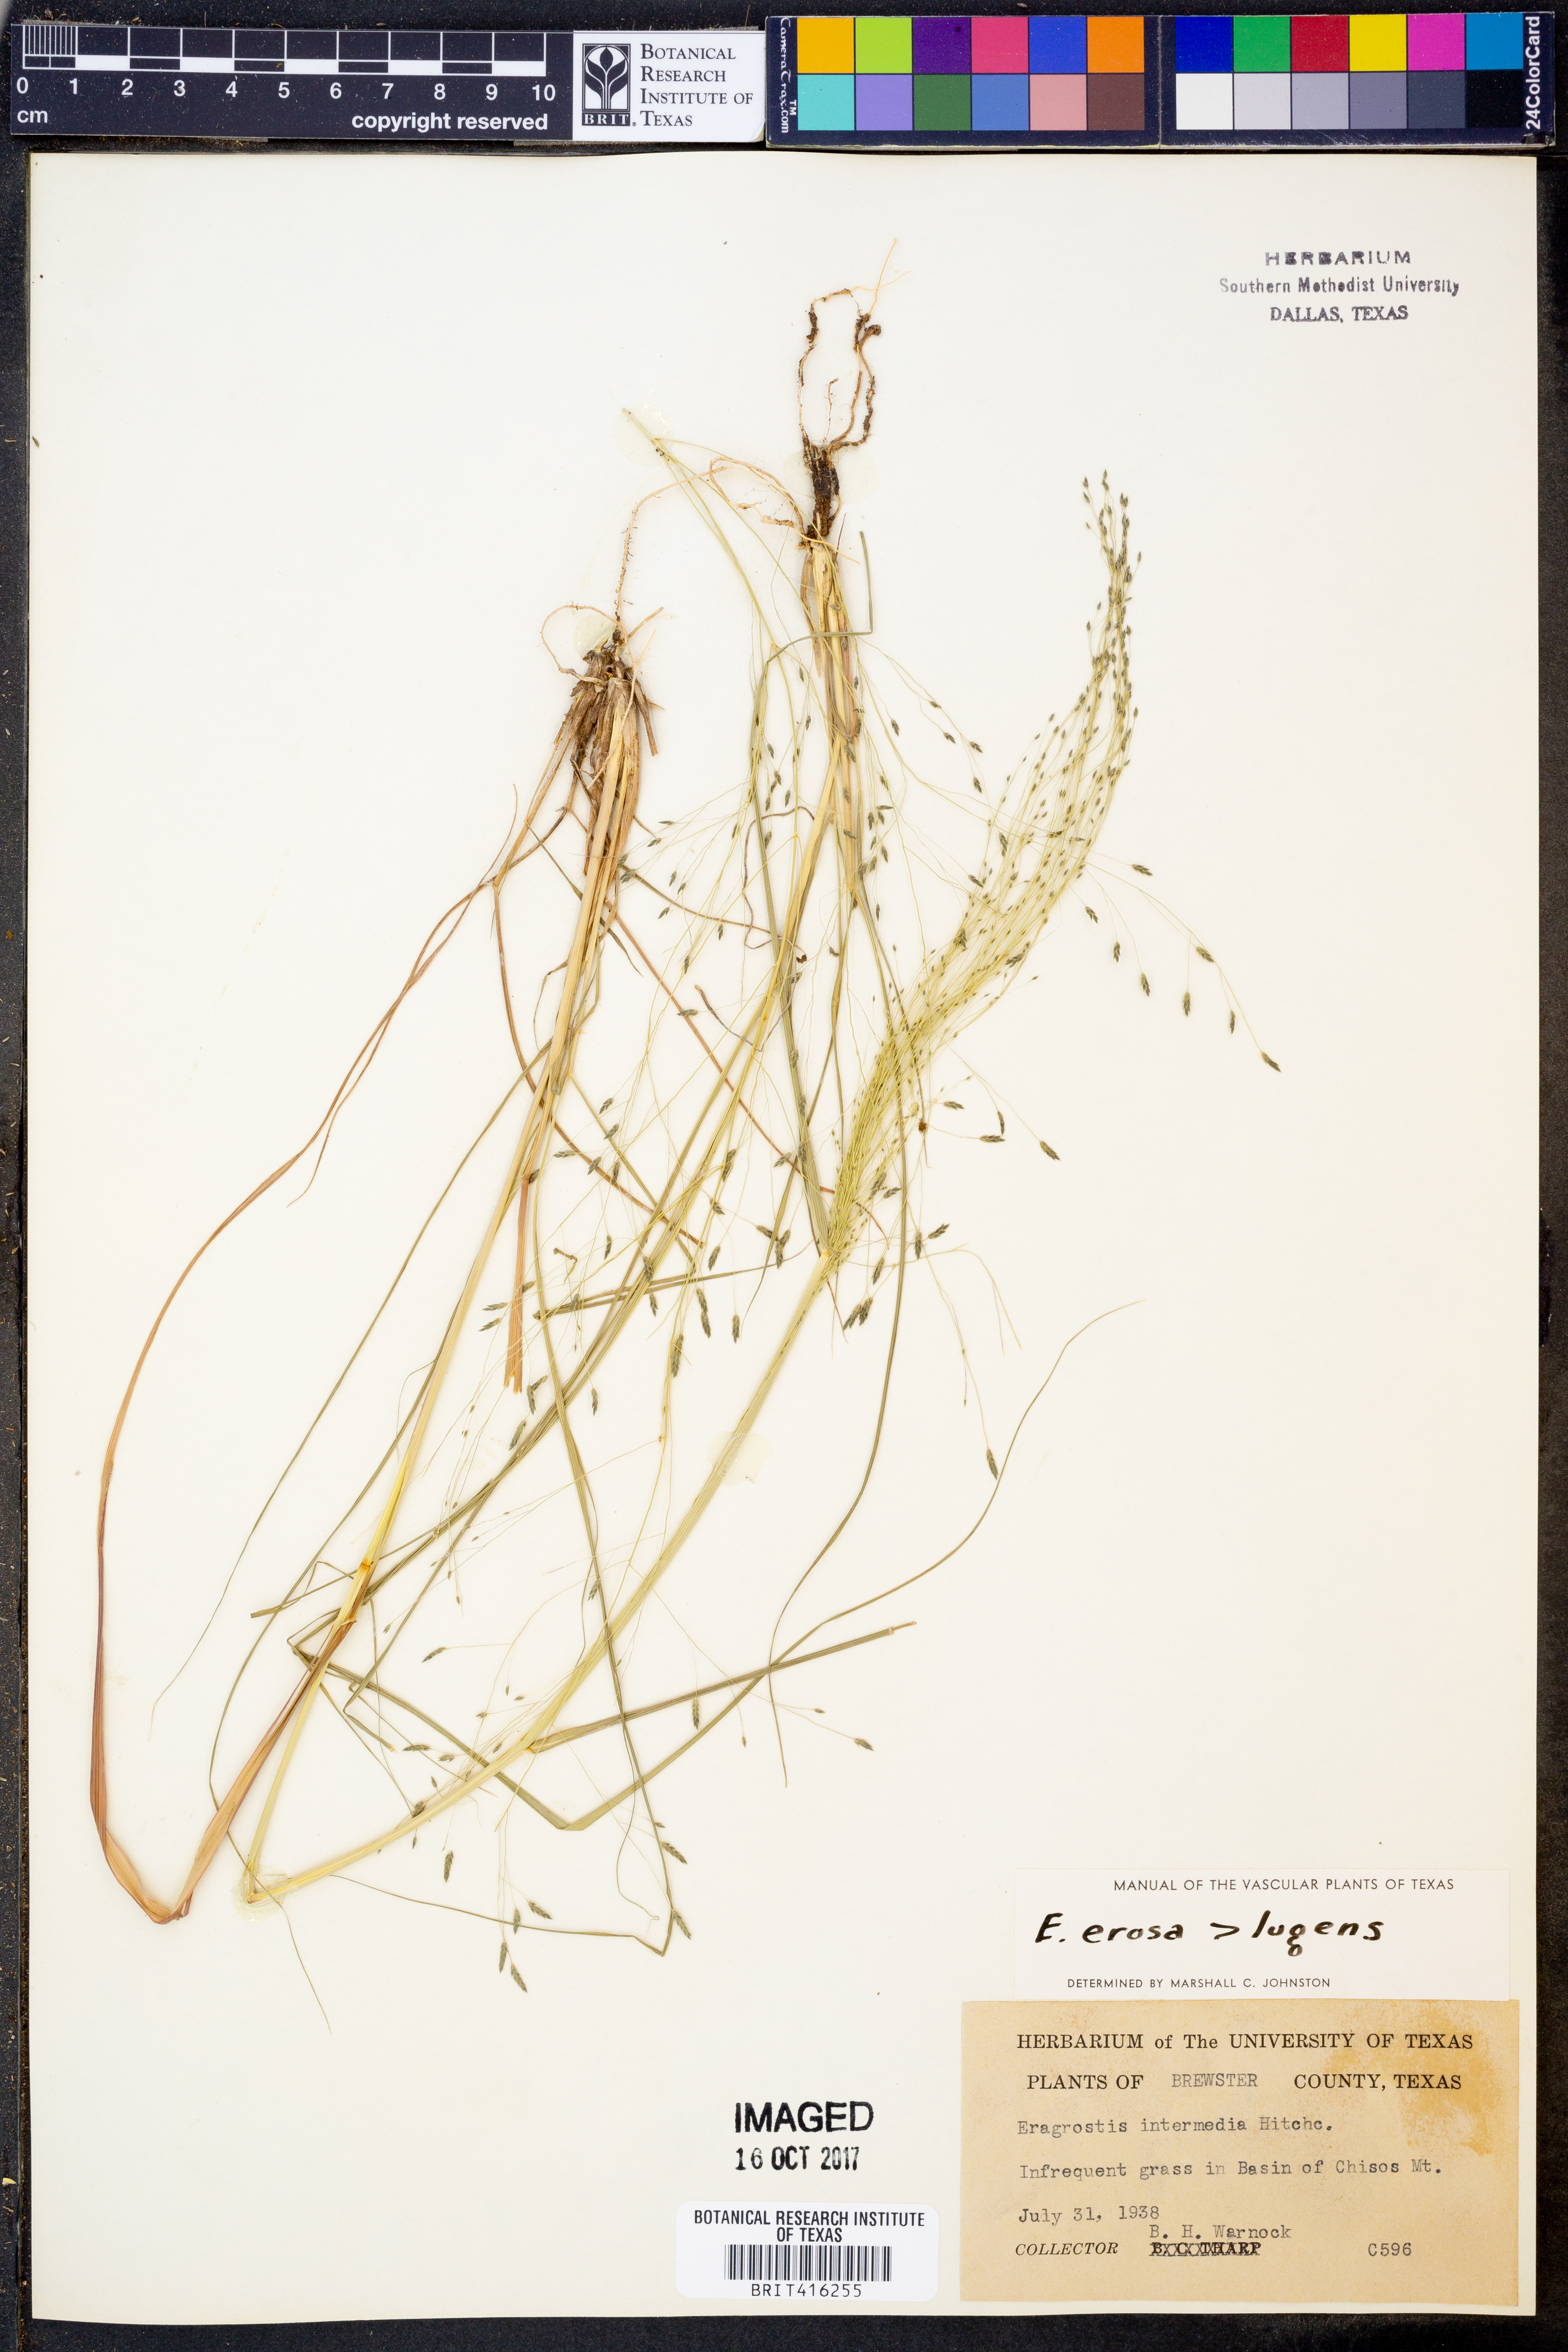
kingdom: Plantae
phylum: Tracheophyta
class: Liliopsida
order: Poales
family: Poaceae
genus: Eragrostis
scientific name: Eragrostis erosa
